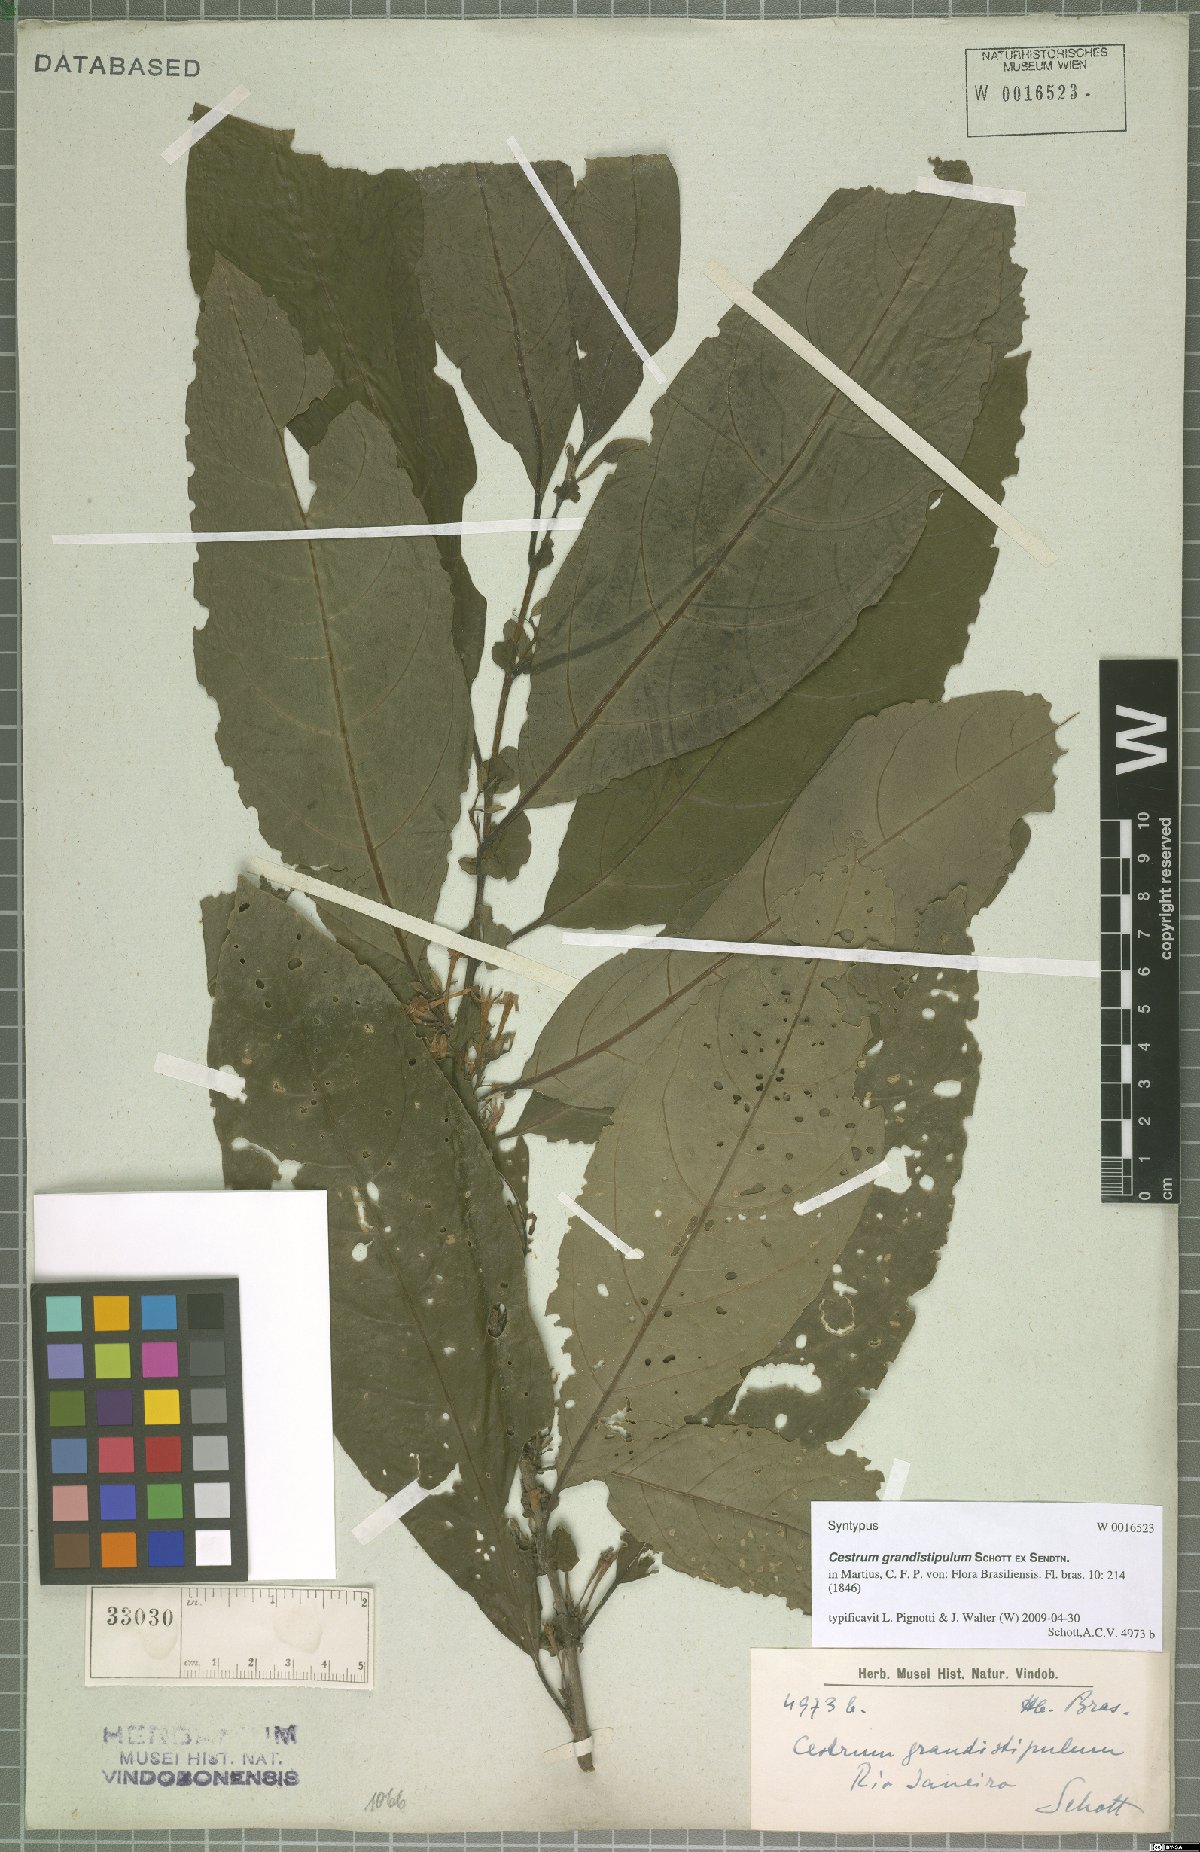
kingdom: Plantae
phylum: Tracheophyta
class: Magnoliopsida
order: Solanales
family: Solanaceae
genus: Cestrum
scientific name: Cestrum corcovadense
